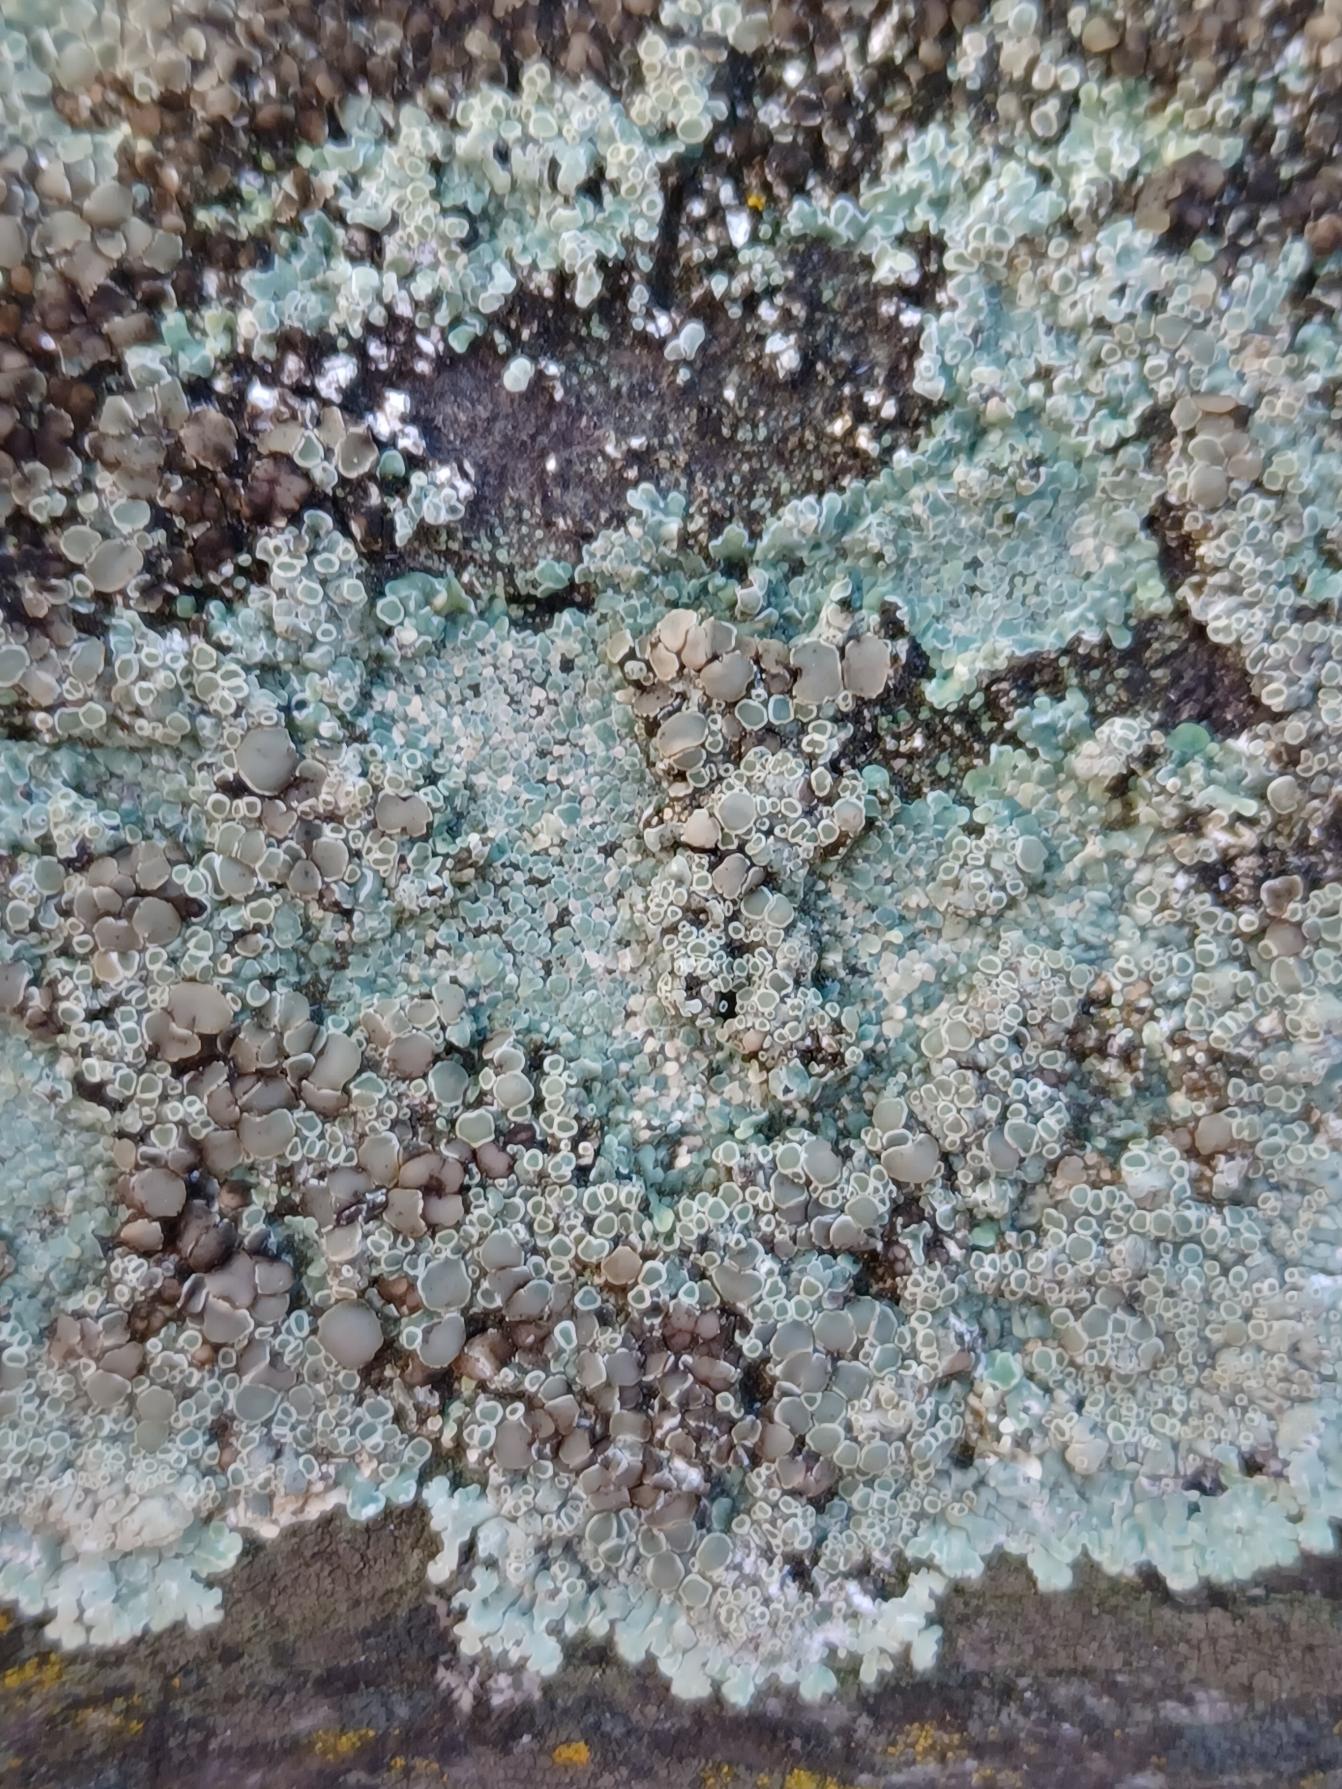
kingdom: Fungi
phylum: Ascomycota
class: Lecanoromycetes
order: Lecanorales
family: Lecanoraceae
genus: Protoparmeliopsis
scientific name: Protoparmeliopsis muralis
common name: Randfliget kantskivelav
